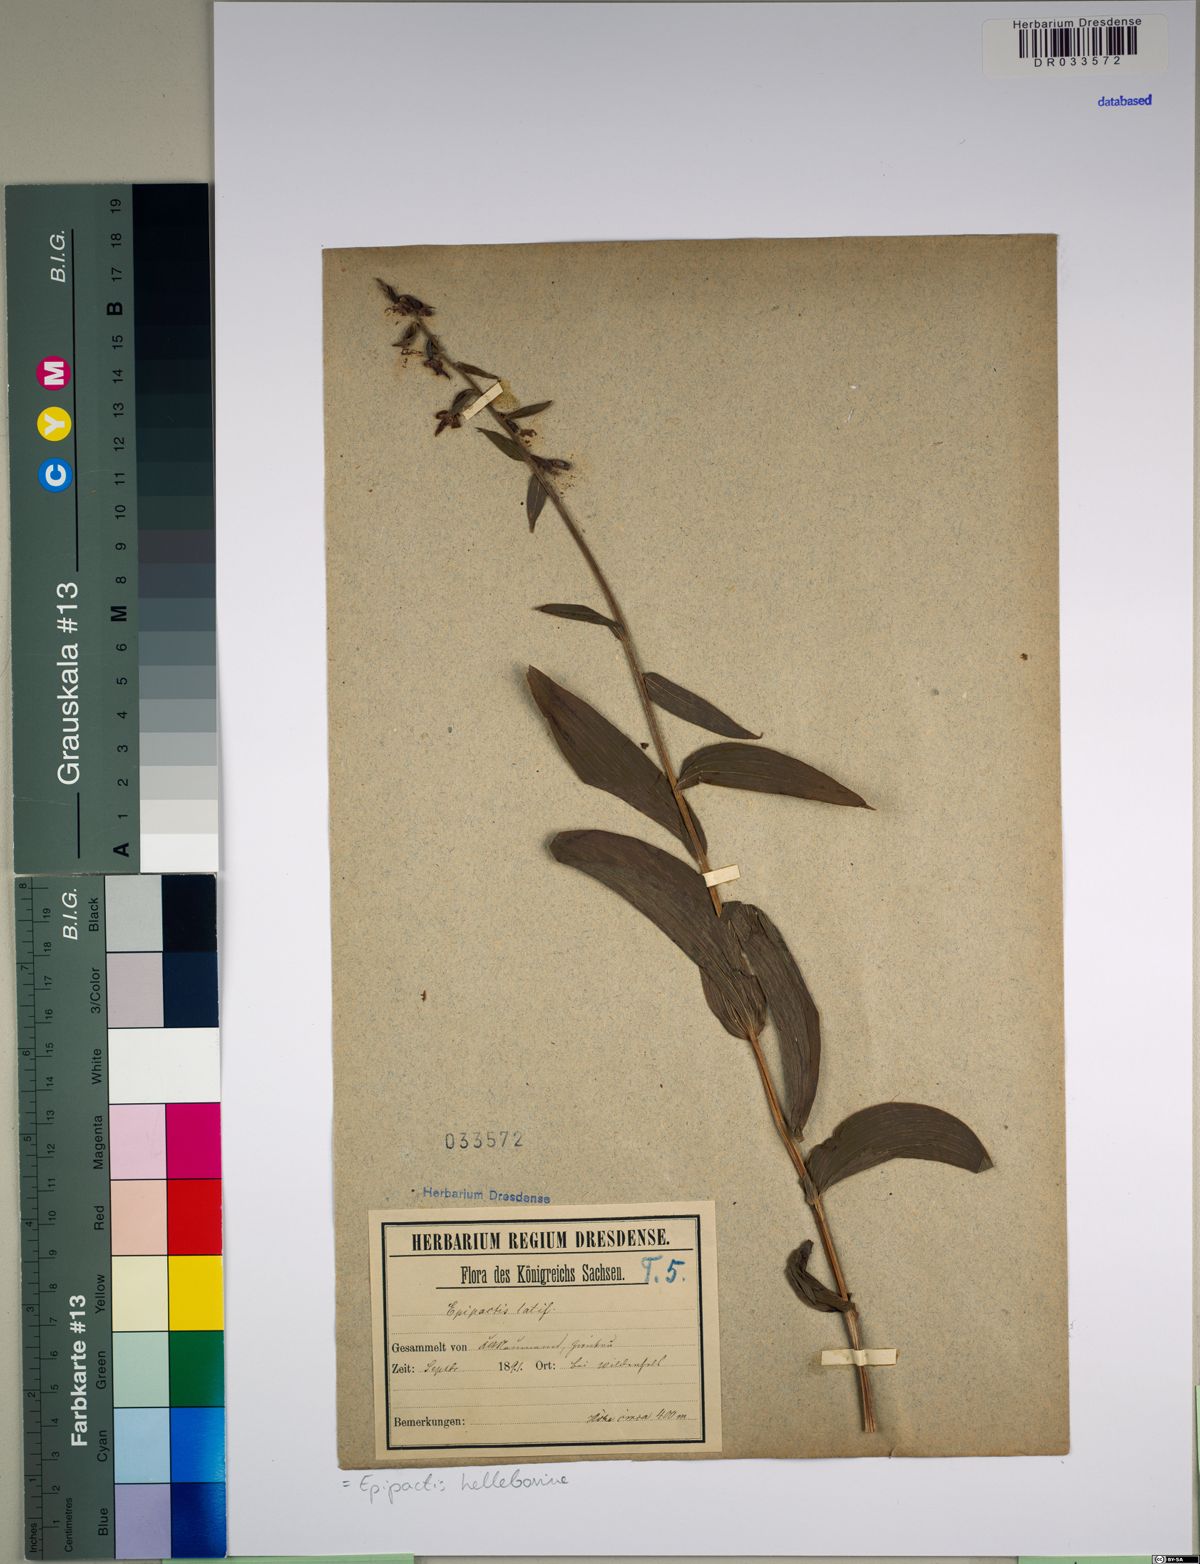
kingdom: Plantae
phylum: Tracheophyta
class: Liliopsida
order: Asparagales
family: Orchidaceae
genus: Epipactis
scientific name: Epipactis helleborine
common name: Broad-leaved helleborine
